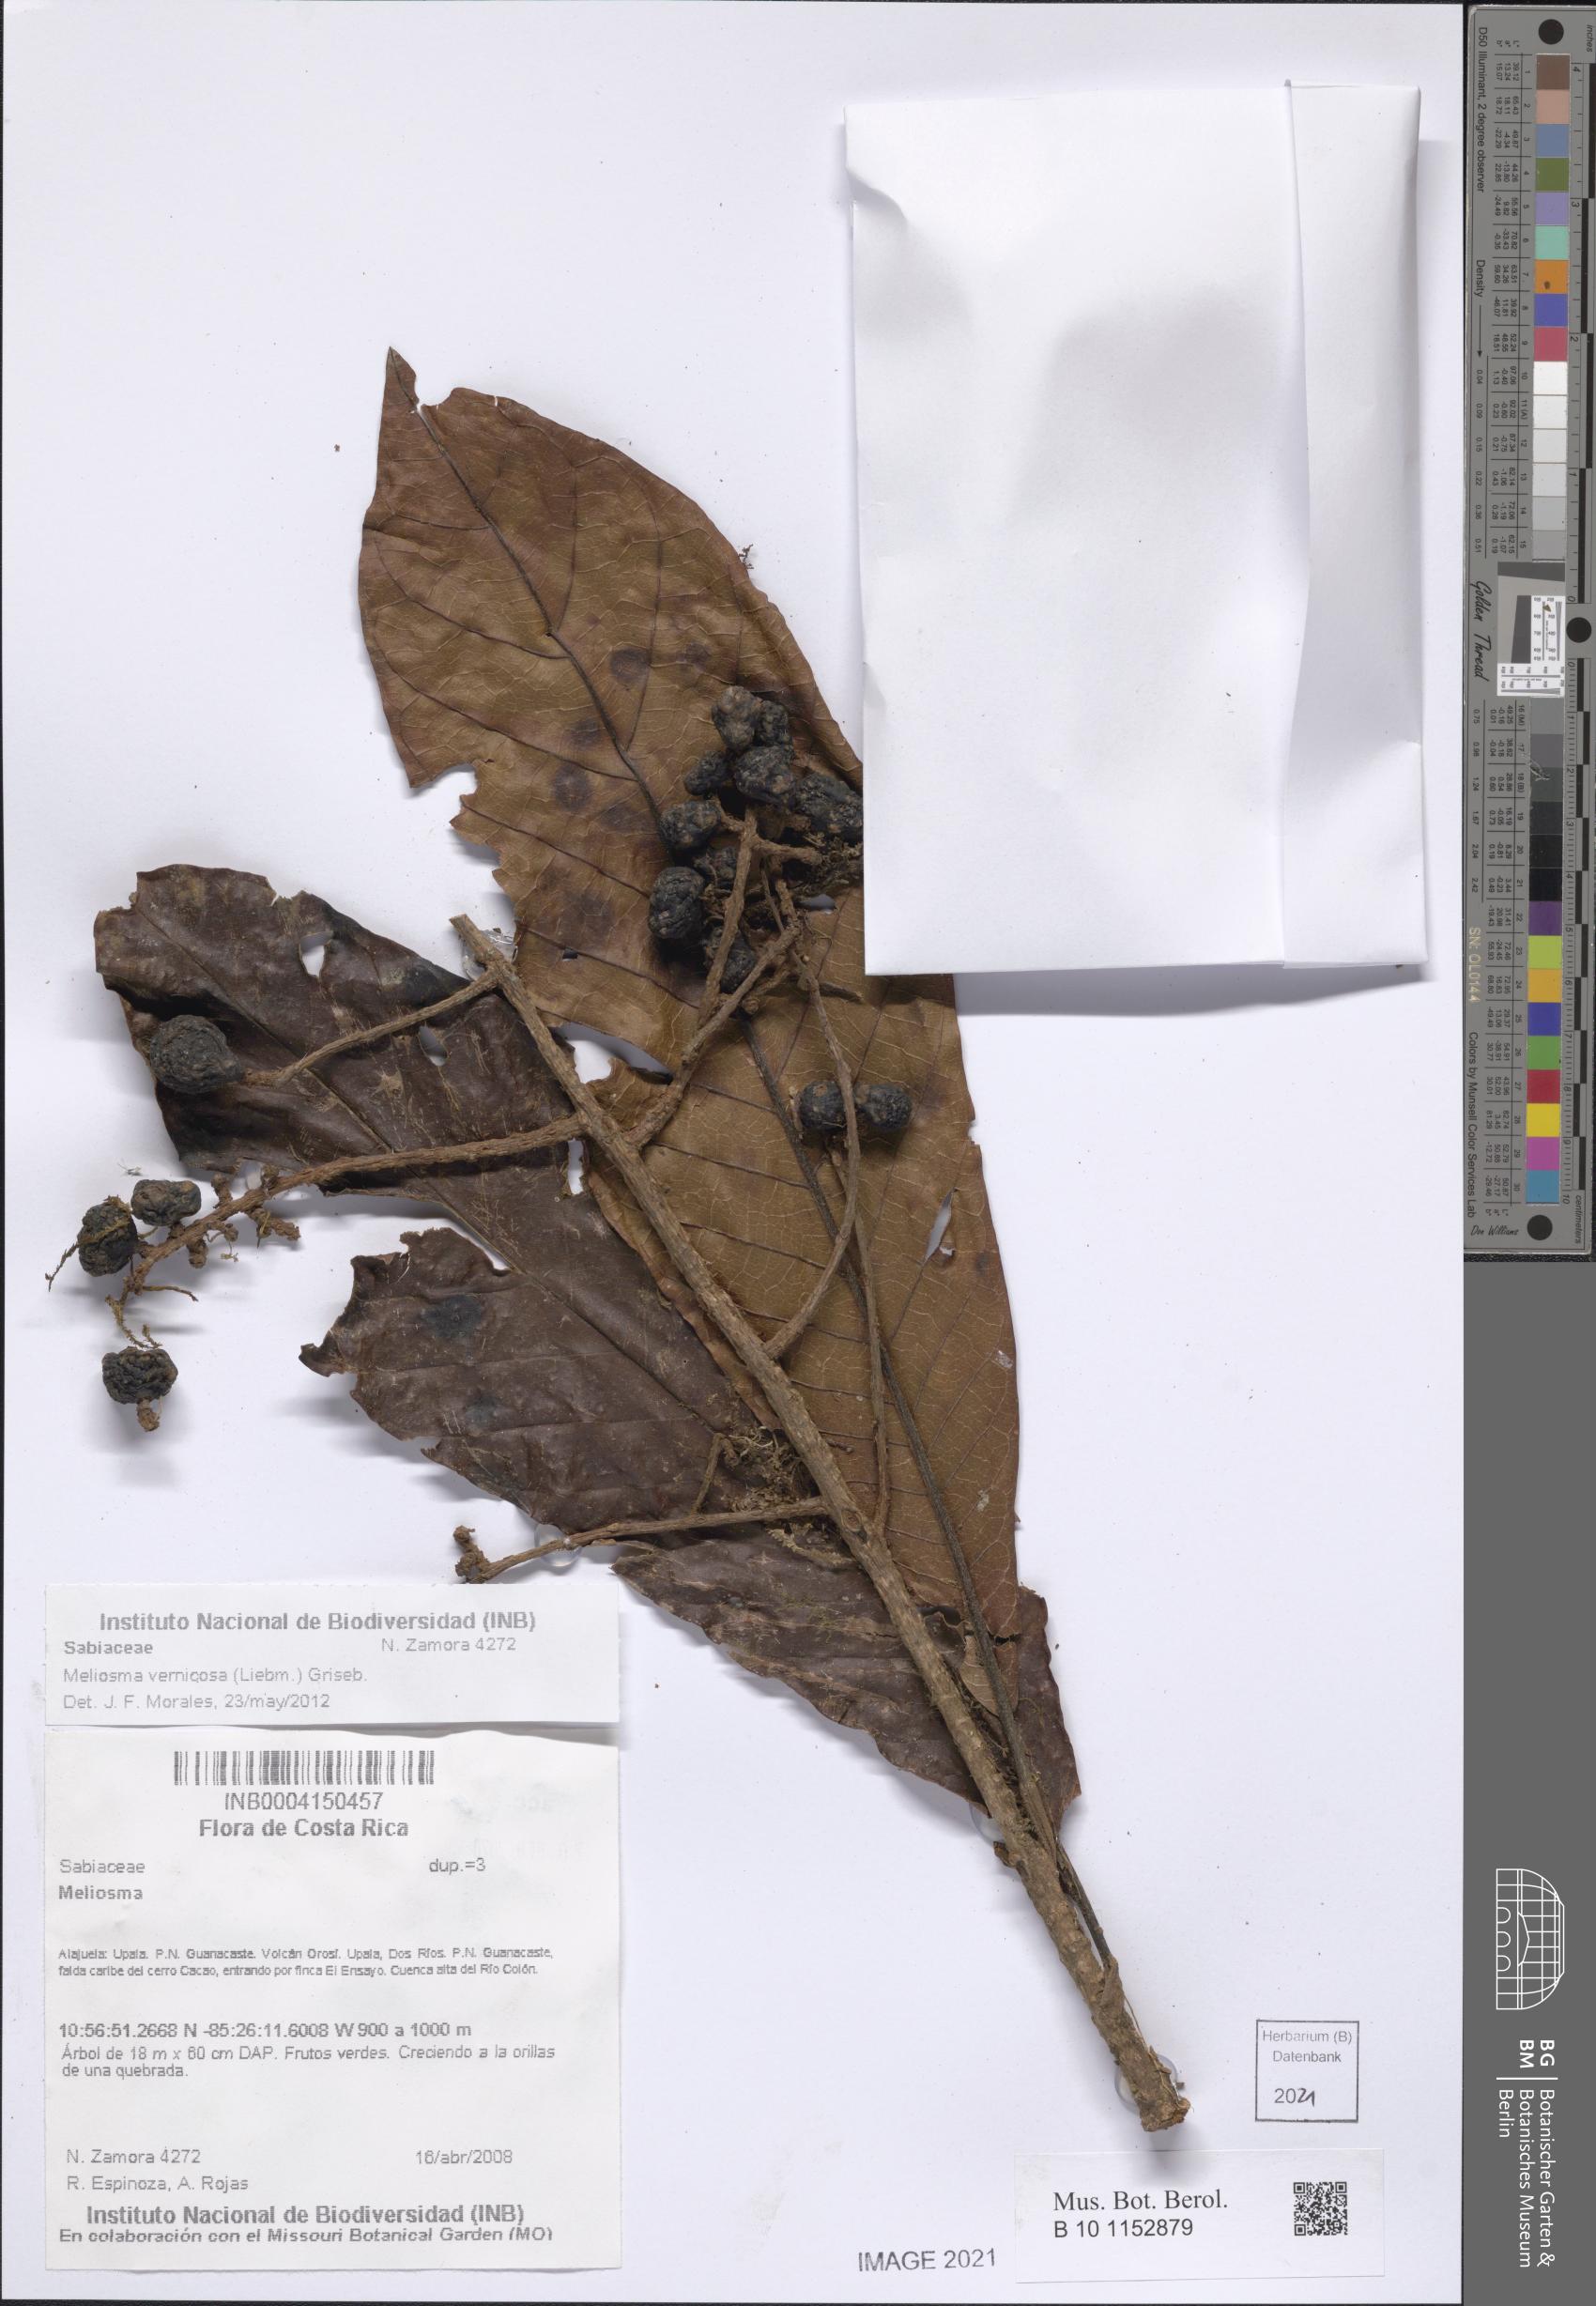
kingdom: Plantae
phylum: Tracheophyta
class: Magnoliopsida
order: Proteales
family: Sabiaceae
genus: Meliosma
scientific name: Meliosma vernicosa
